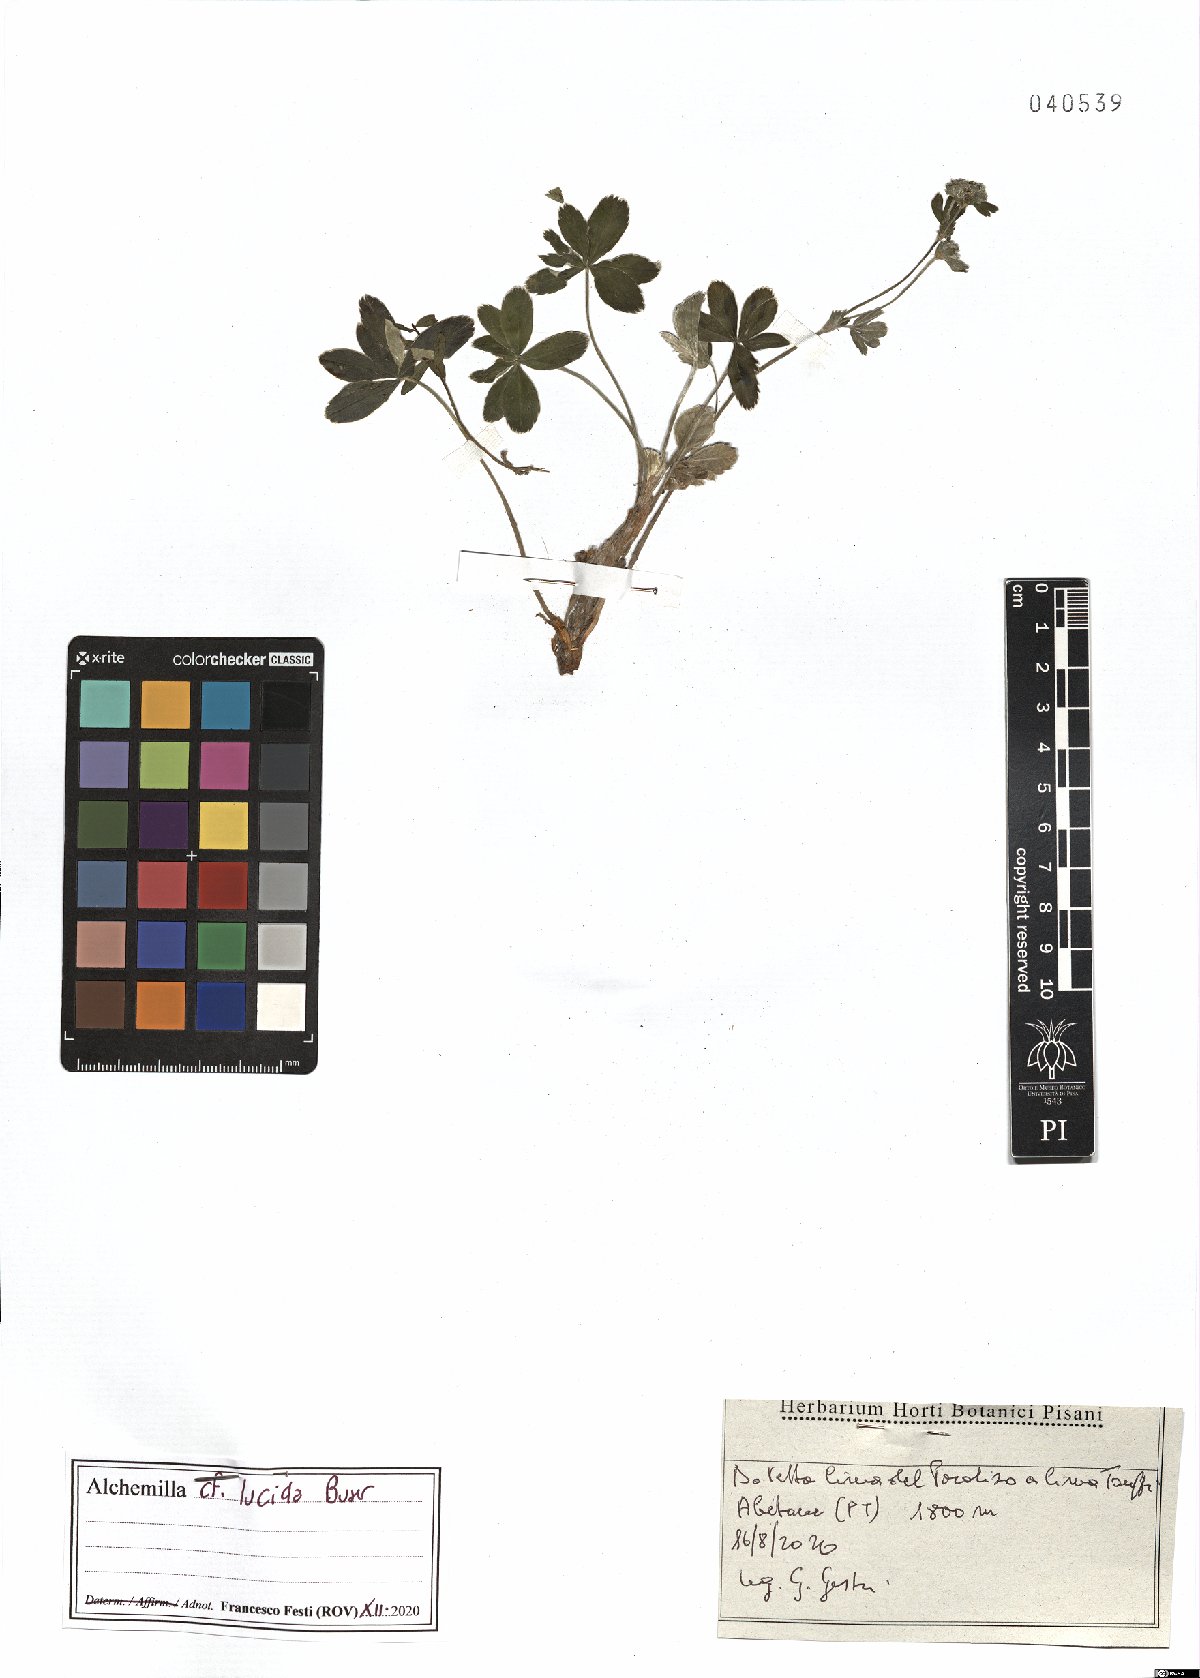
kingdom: Plantae
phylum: Tracheophyta
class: Magnoliopsida
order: Rosales
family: Rosaceae
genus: Alchemilla
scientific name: Alchemilla lucida
